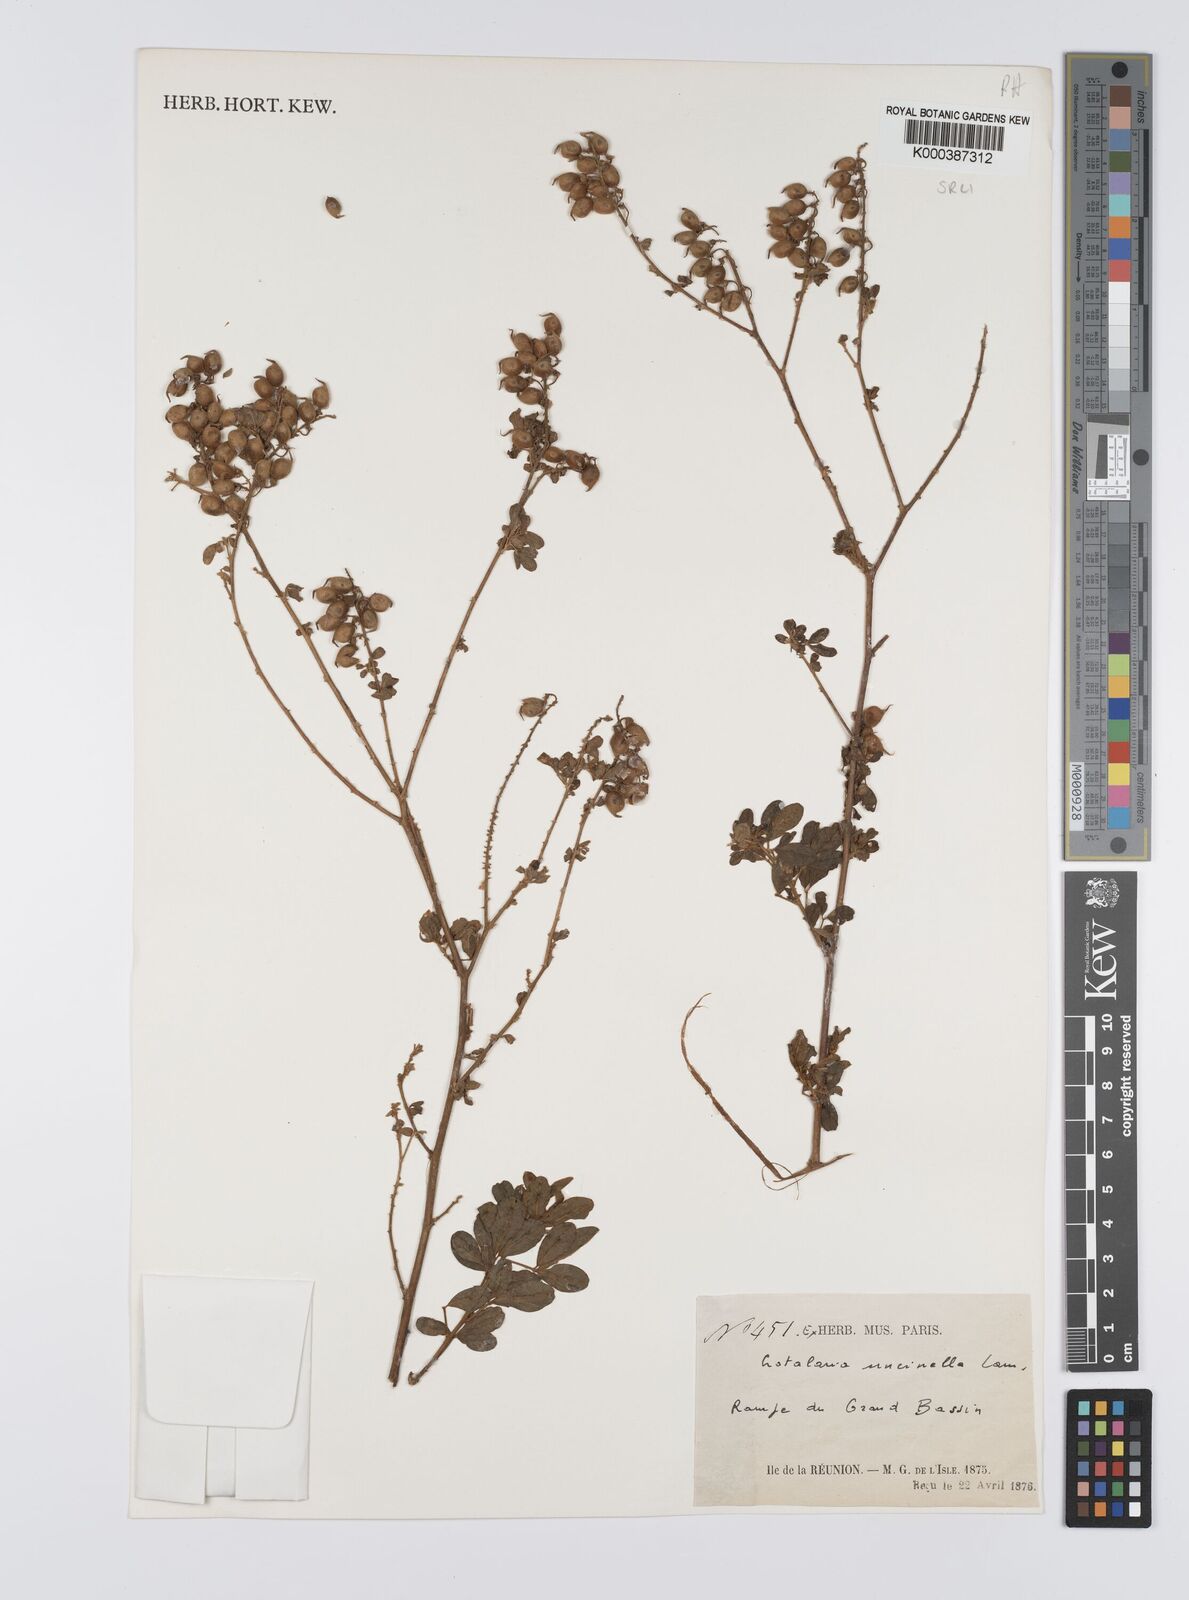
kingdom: Plantae
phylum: Tracheophyta
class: Magnoliopsida
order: Fabales
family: Fabaceae
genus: Crotalaria
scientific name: Crotalaria uncinella
